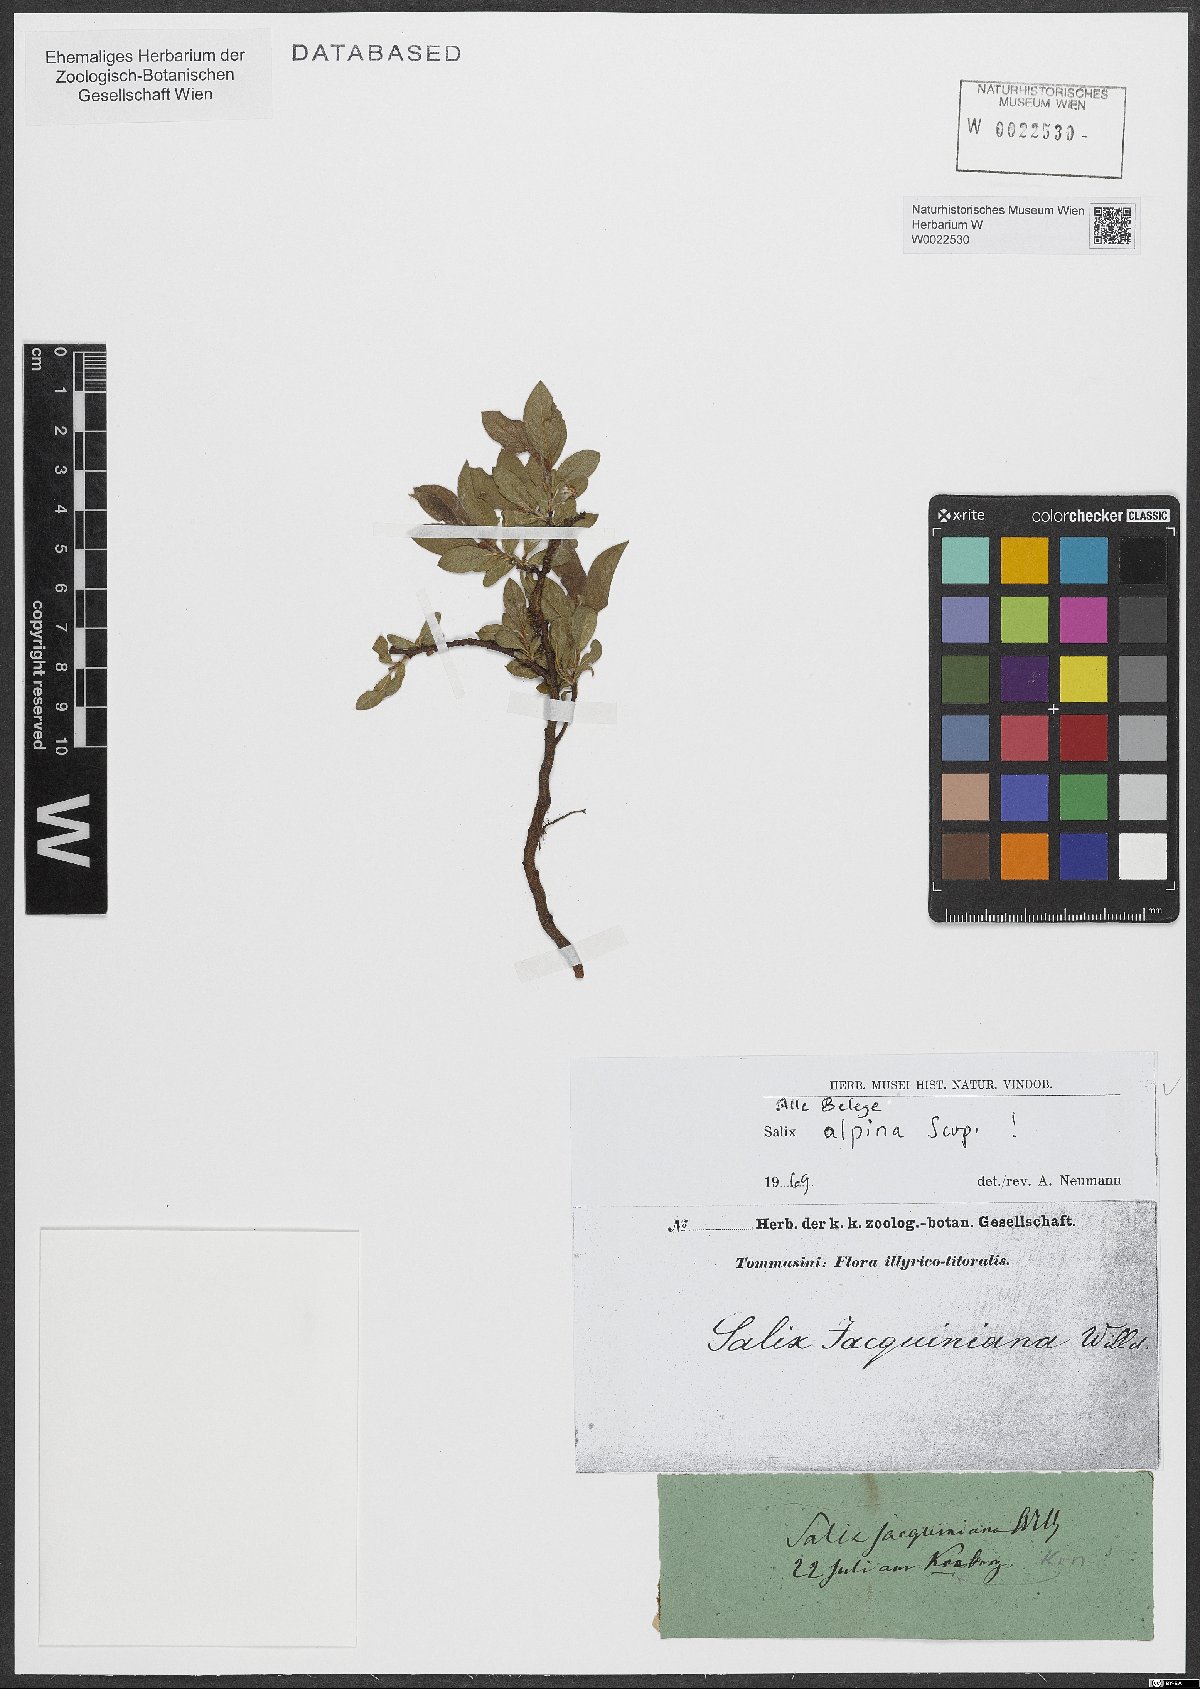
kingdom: Plantae
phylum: Tracheophyta
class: Magnoliopsida
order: Malpighiales
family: Salicaceae
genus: Salix
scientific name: Salix alpina
